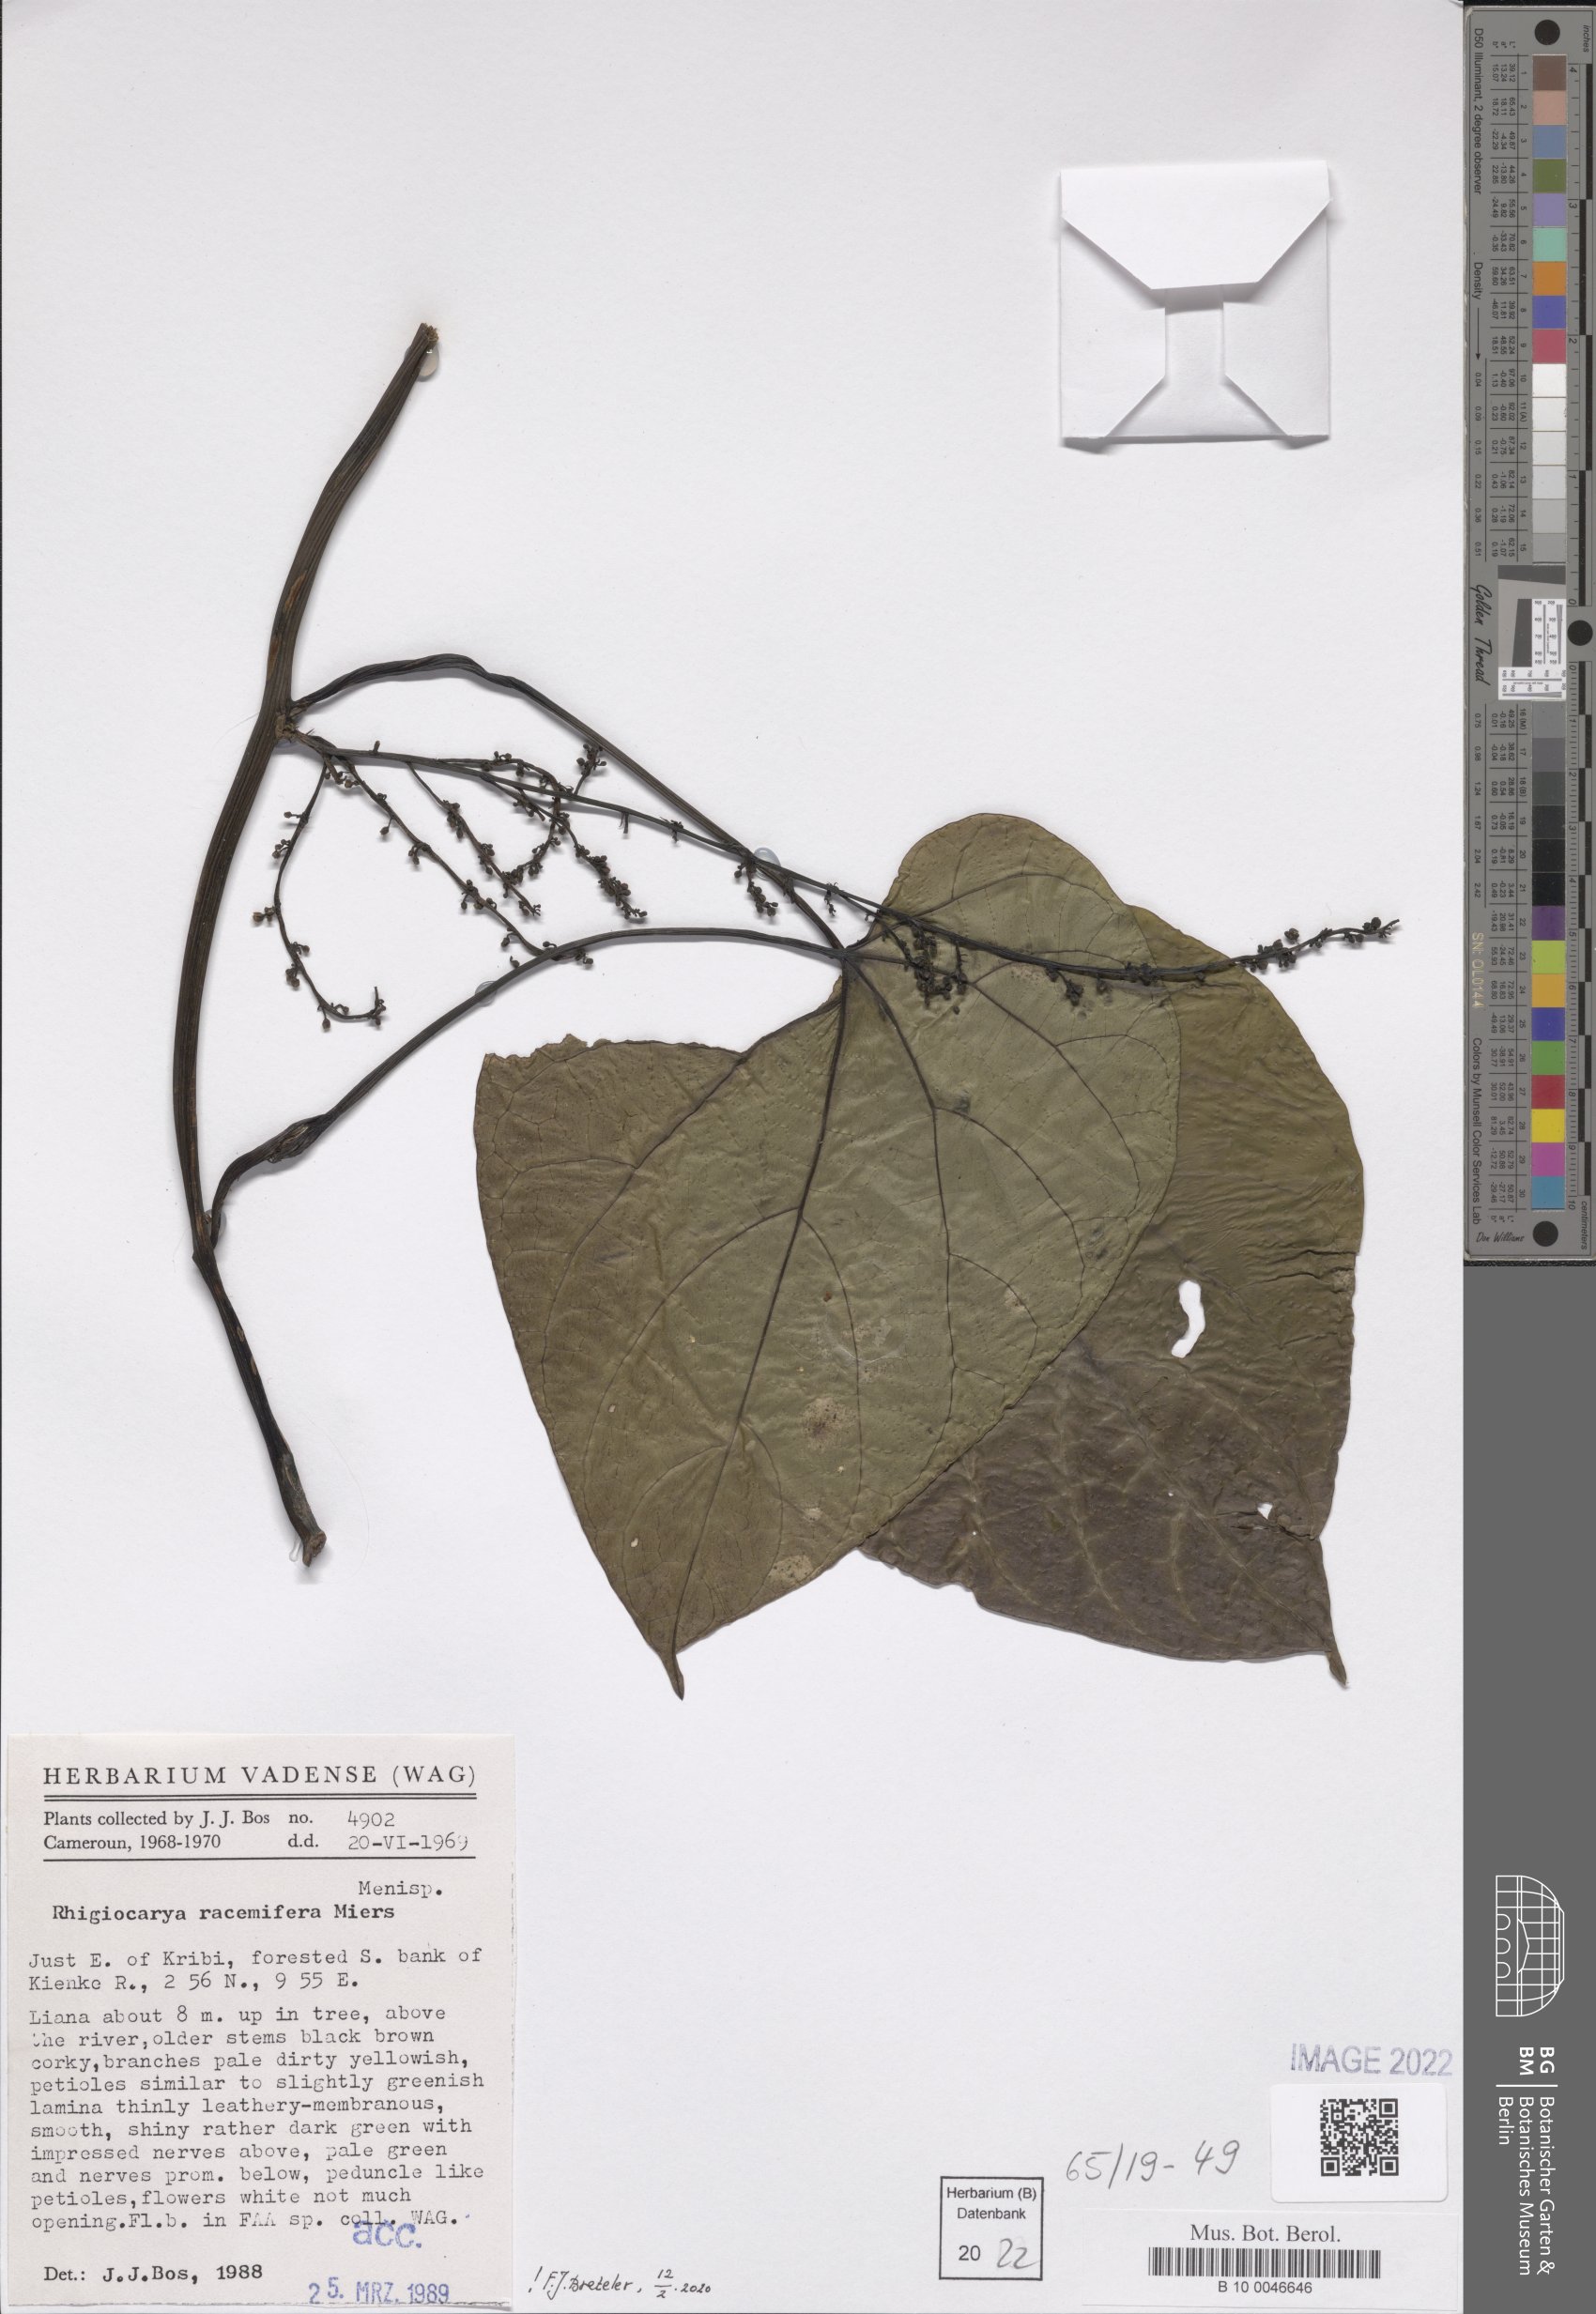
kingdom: Plantae
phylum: Tracheophyta
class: Magnoliopsida
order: Ranunculales
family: Menispermaceae
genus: Rhigiocarya
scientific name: Rhigiocarya racemifera
